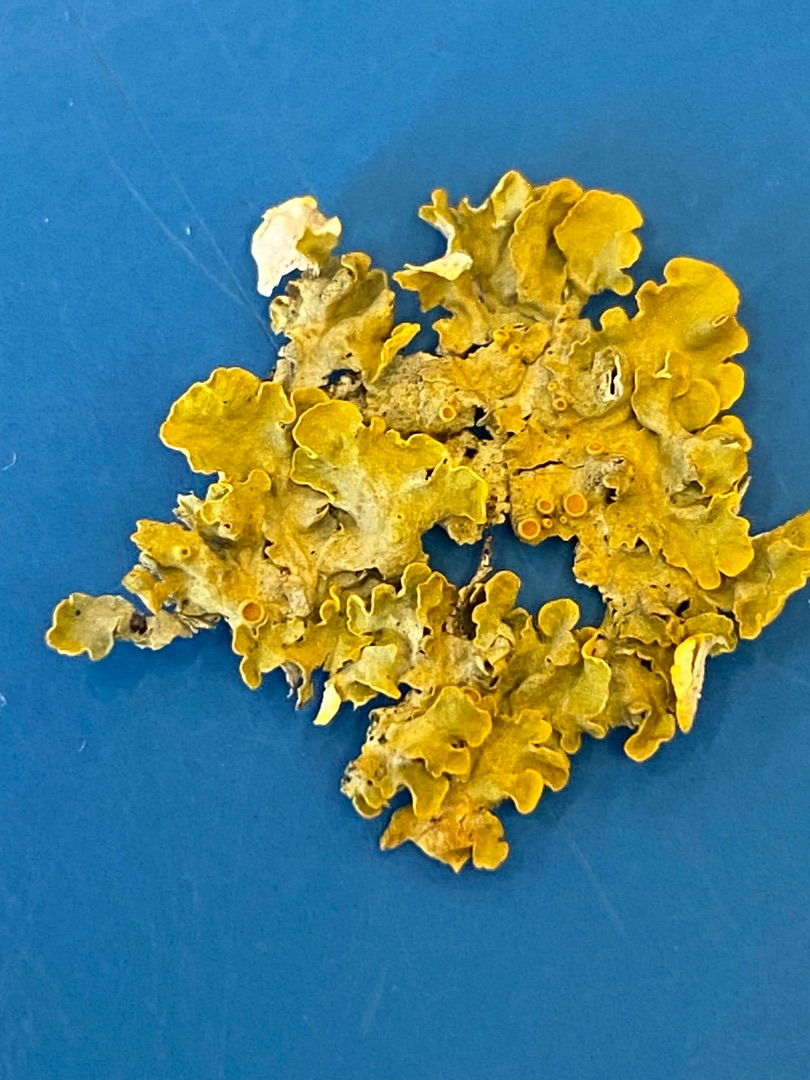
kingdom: Fungi
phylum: Ascomycota
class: Lecanoromycetes
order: Teloschistales
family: Teloschistaceae
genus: Xanthoria
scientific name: Xanthoria parietina
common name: Almindelig væggelav
